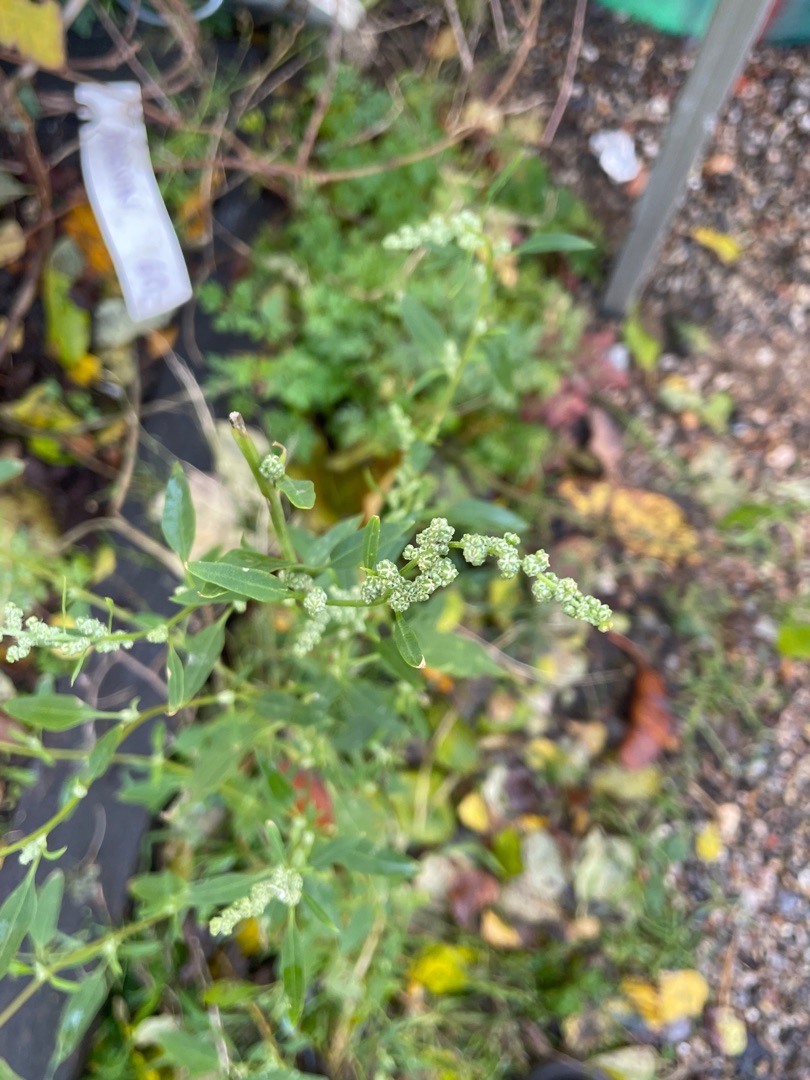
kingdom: Plantae
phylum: Tracheophyta
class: Magnoliopsida
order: Caryophyllales
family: Amaranthaceae
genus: Chenopodium
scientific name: Chenopodium album
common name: Hvidmelet gåsefod
